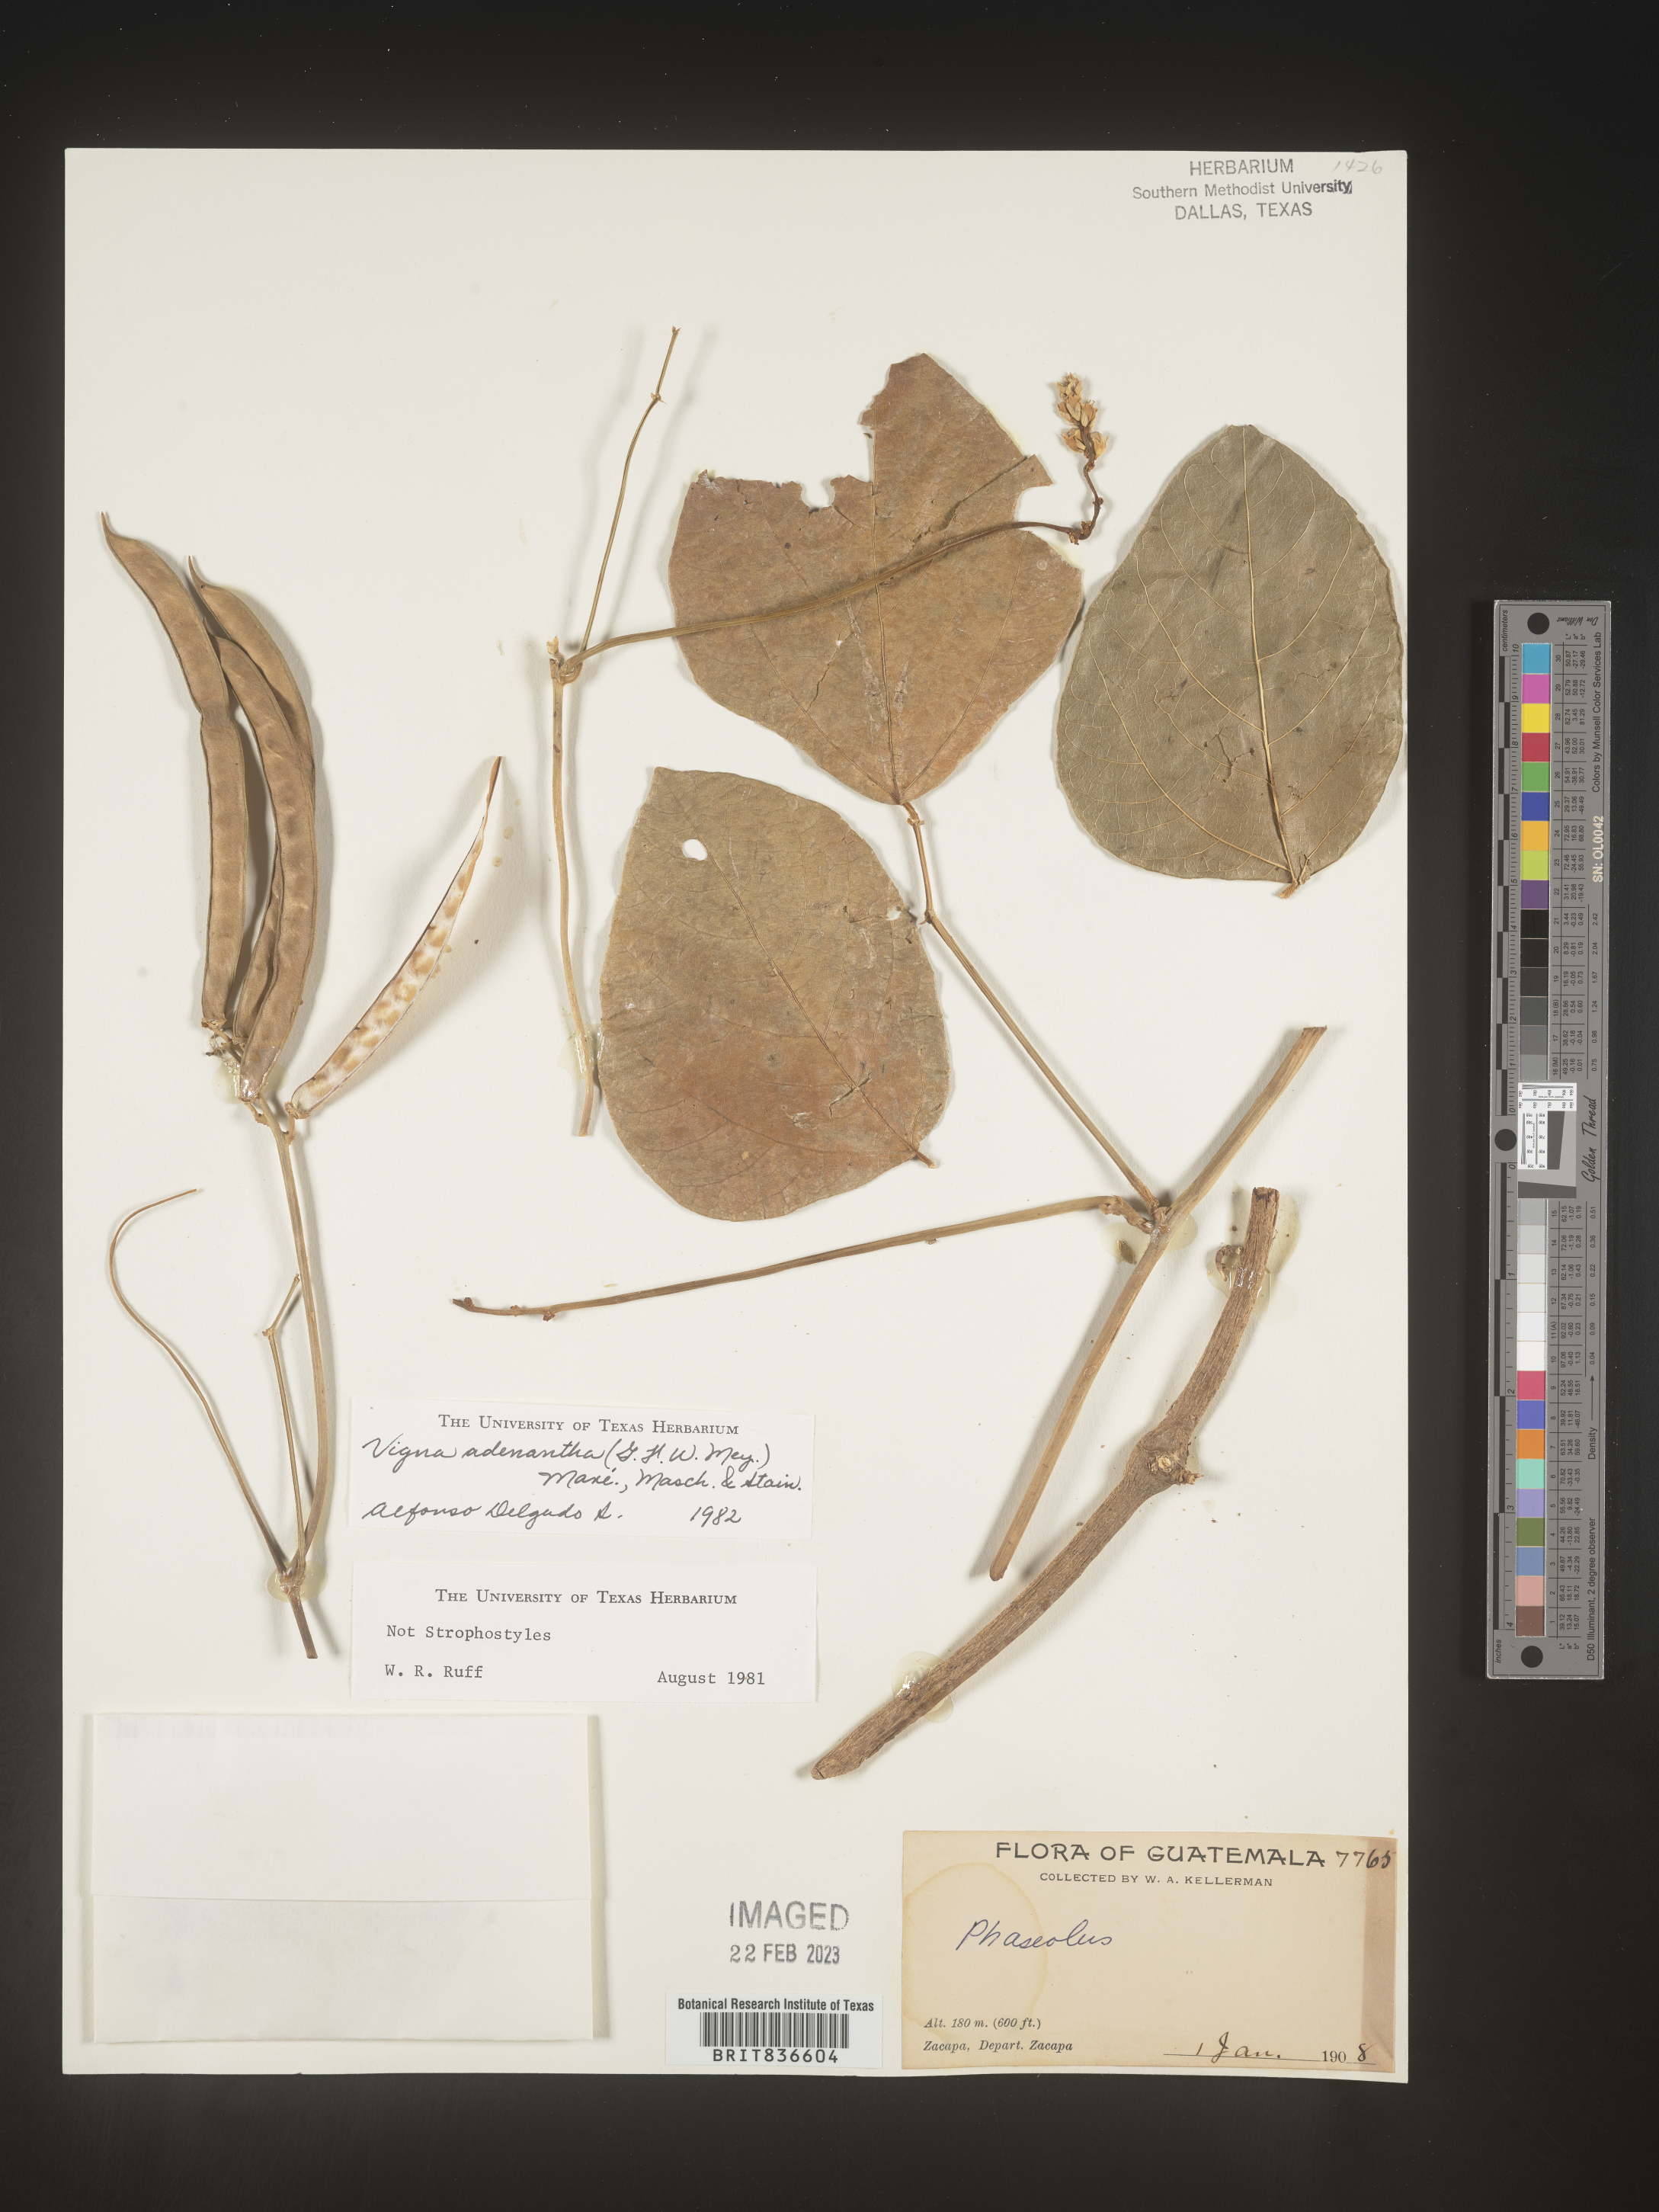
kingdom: Plantae
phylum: Tracheophyta
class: Magnoliopsida
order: Fabales
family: Fabaceae
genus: Vigna
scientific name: Vigna
